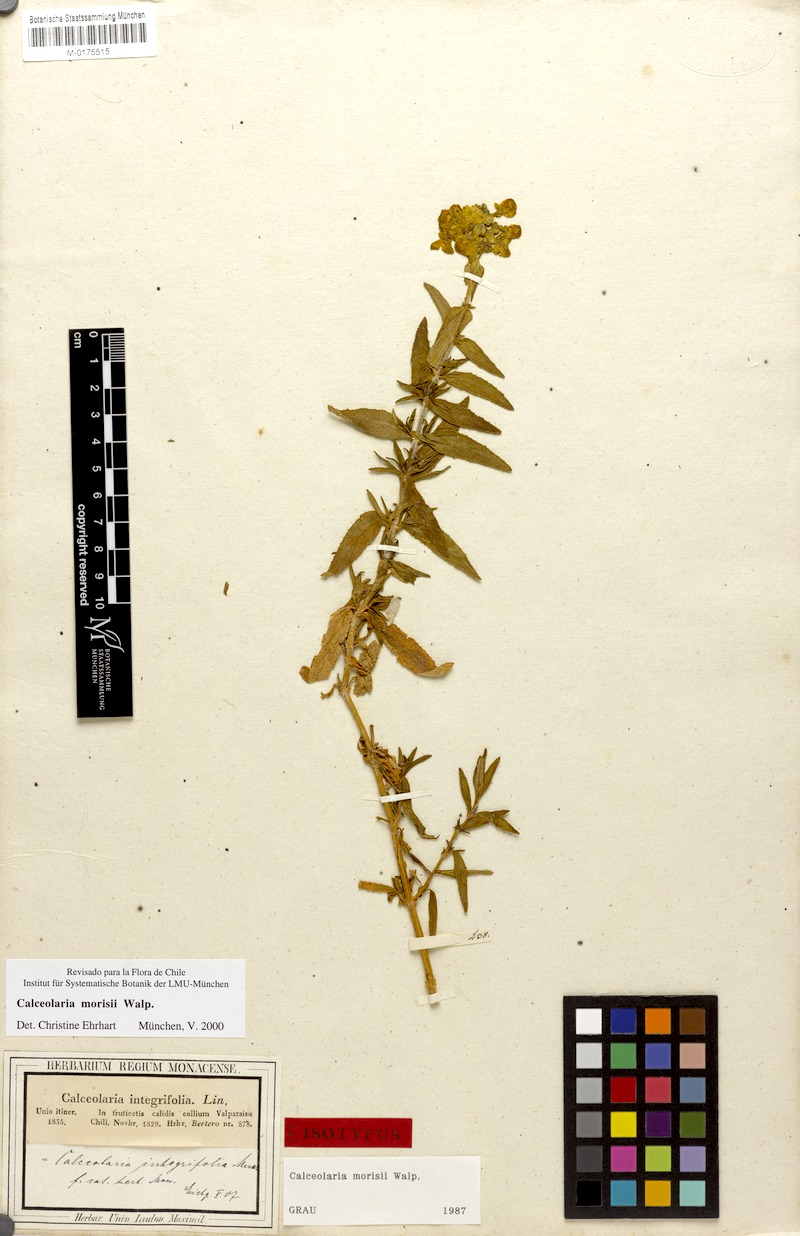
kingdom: Plantae
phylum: Tracheophyta
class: Magnoliopsida
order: Lamiales
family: Calceolariaceae
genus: Calceolaria
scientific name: Calceolaria morisii
